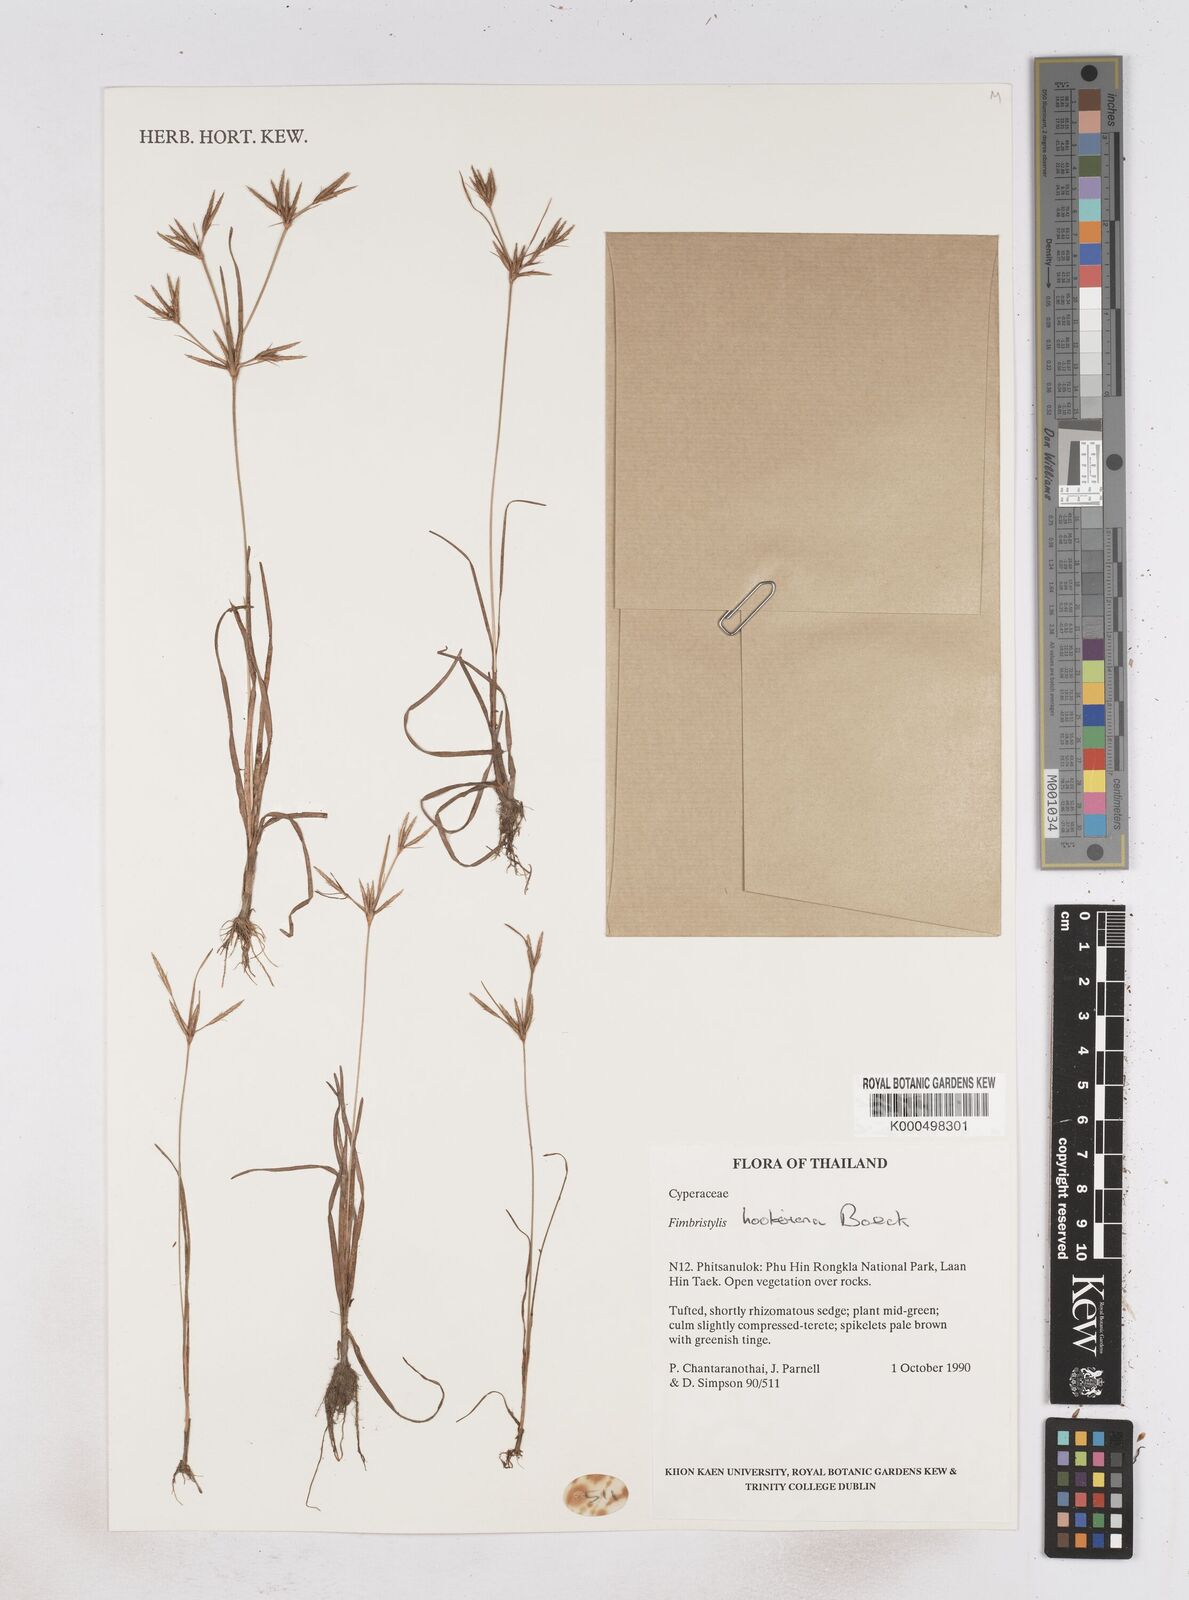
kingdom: Plantae
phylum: Tracheophyta
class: Liliopsida
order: Poales
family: Cyperaceae
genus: Fimbristylis
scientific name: Fimbristylis hookeriana
